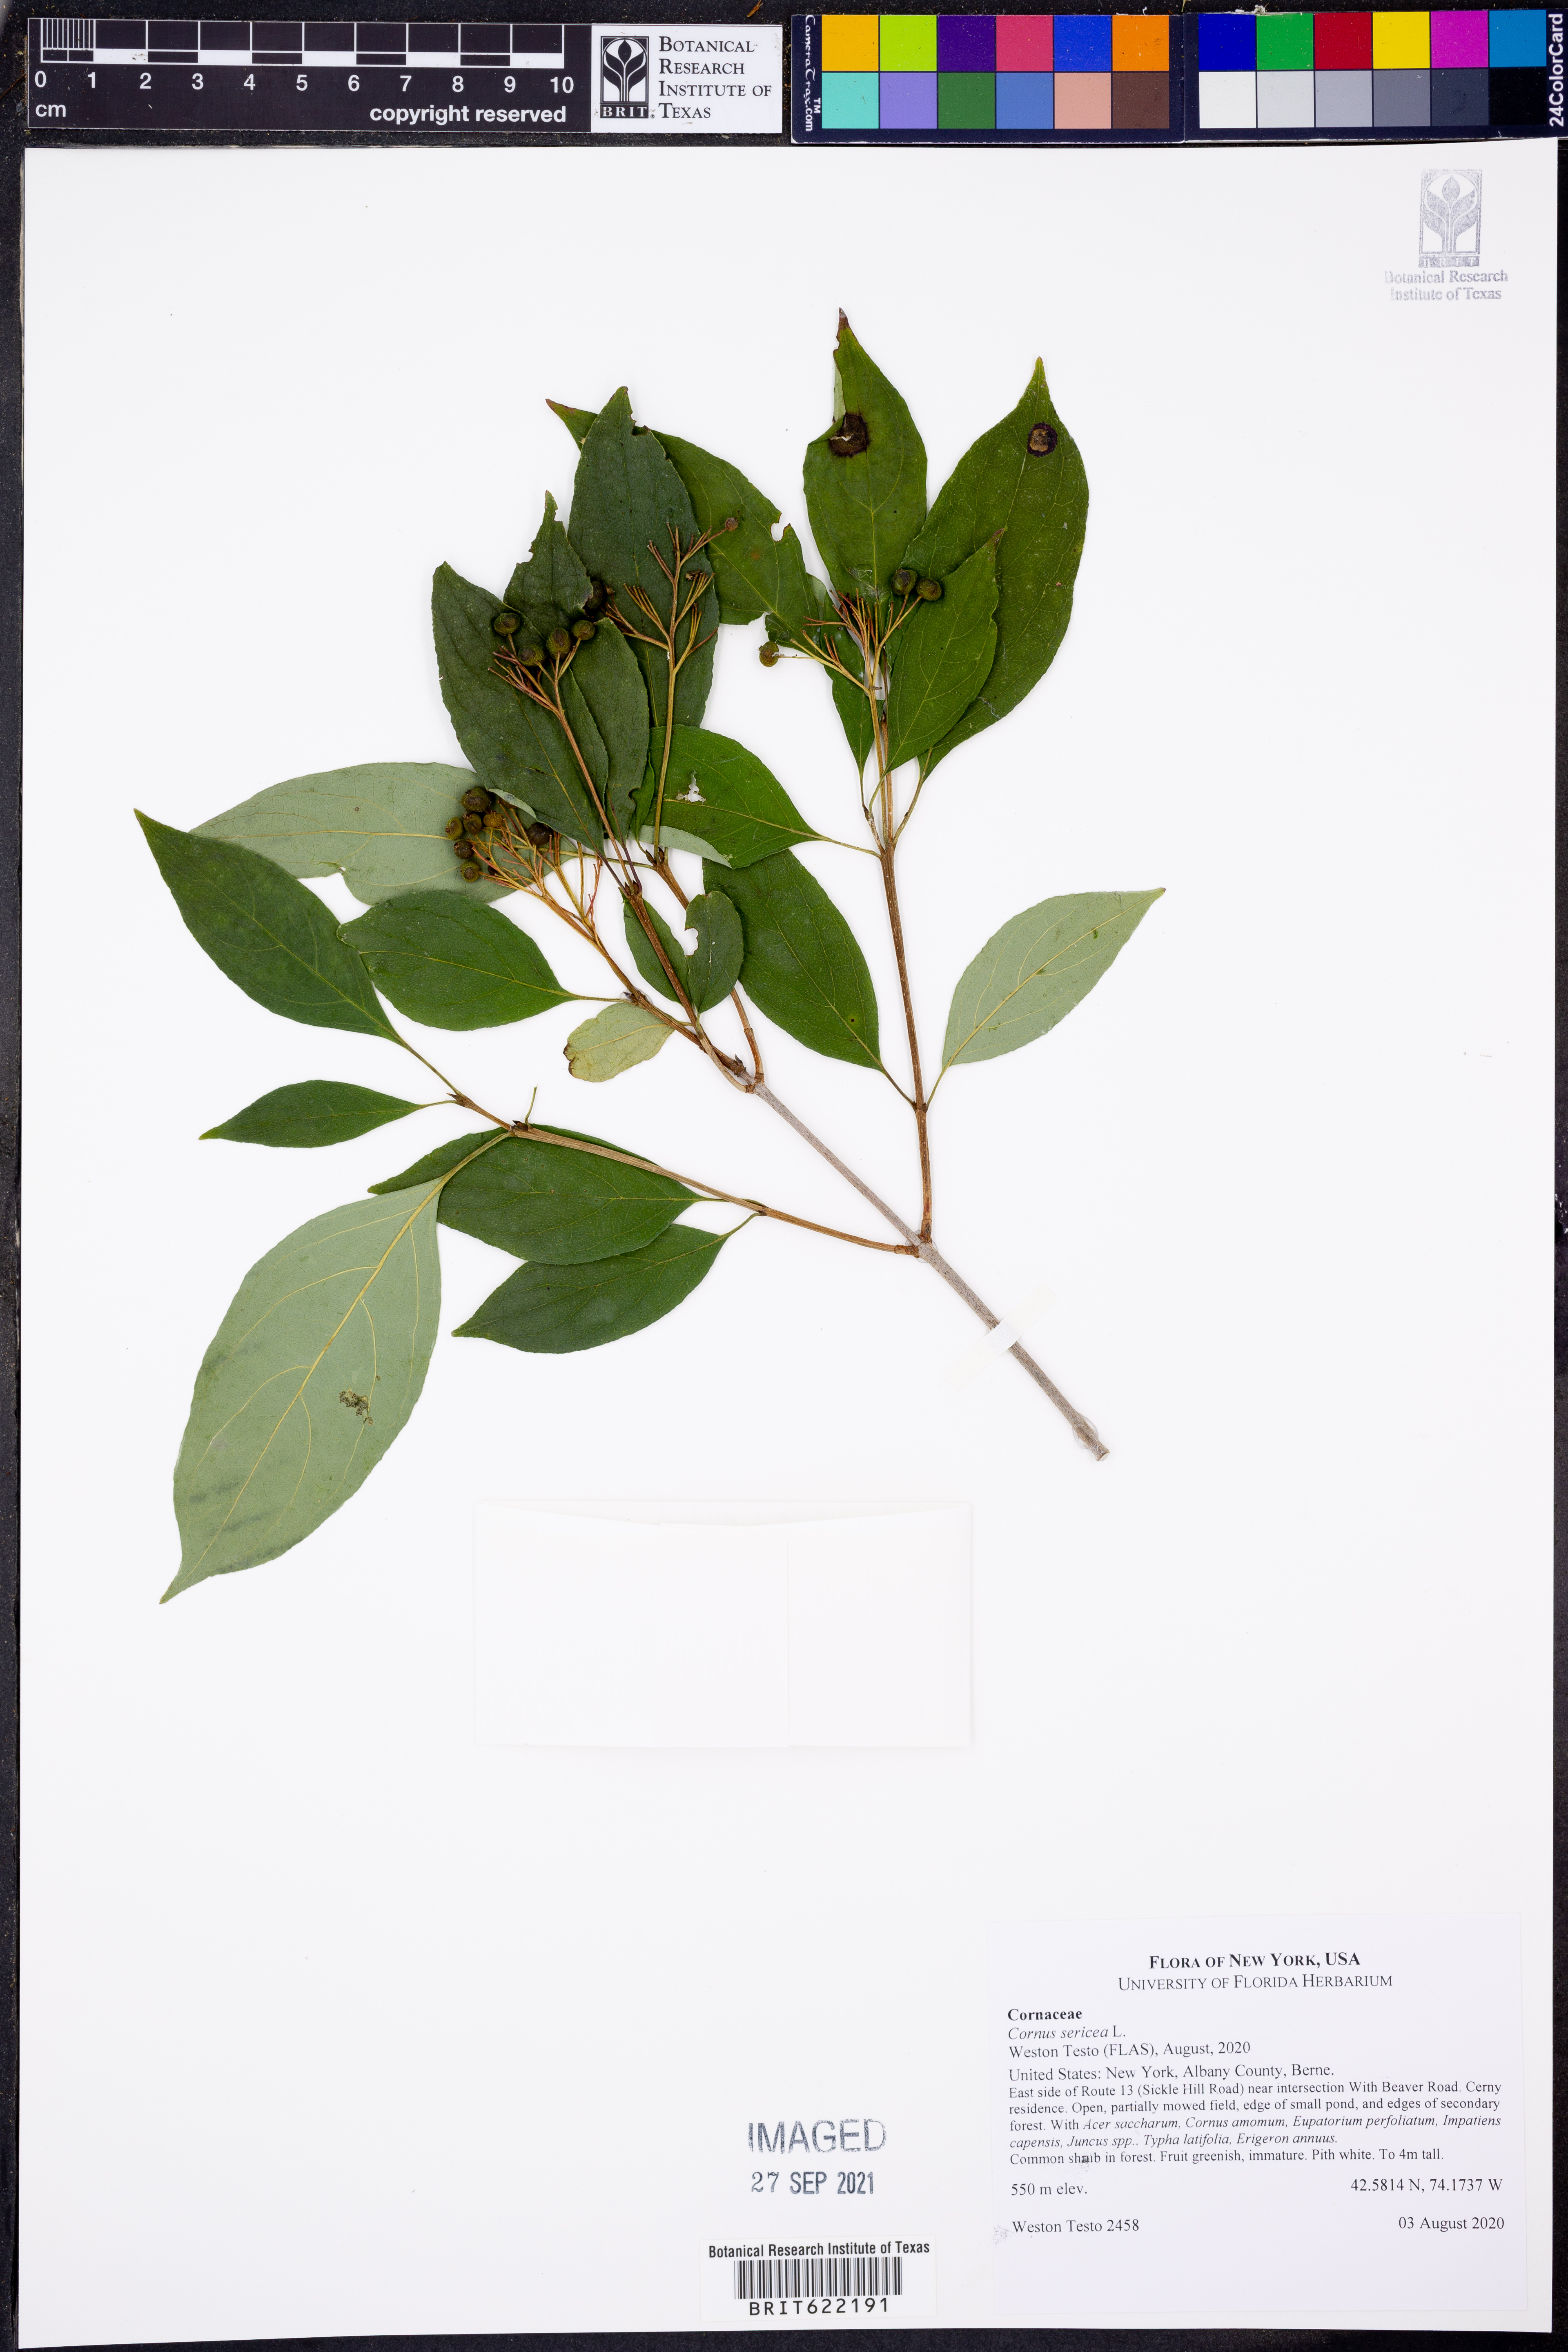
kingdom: Plantae
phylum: Tracheophyta
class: Magnoliopsida
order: Cornales
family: Cornaceae
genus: Cornus
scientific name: Cornus
